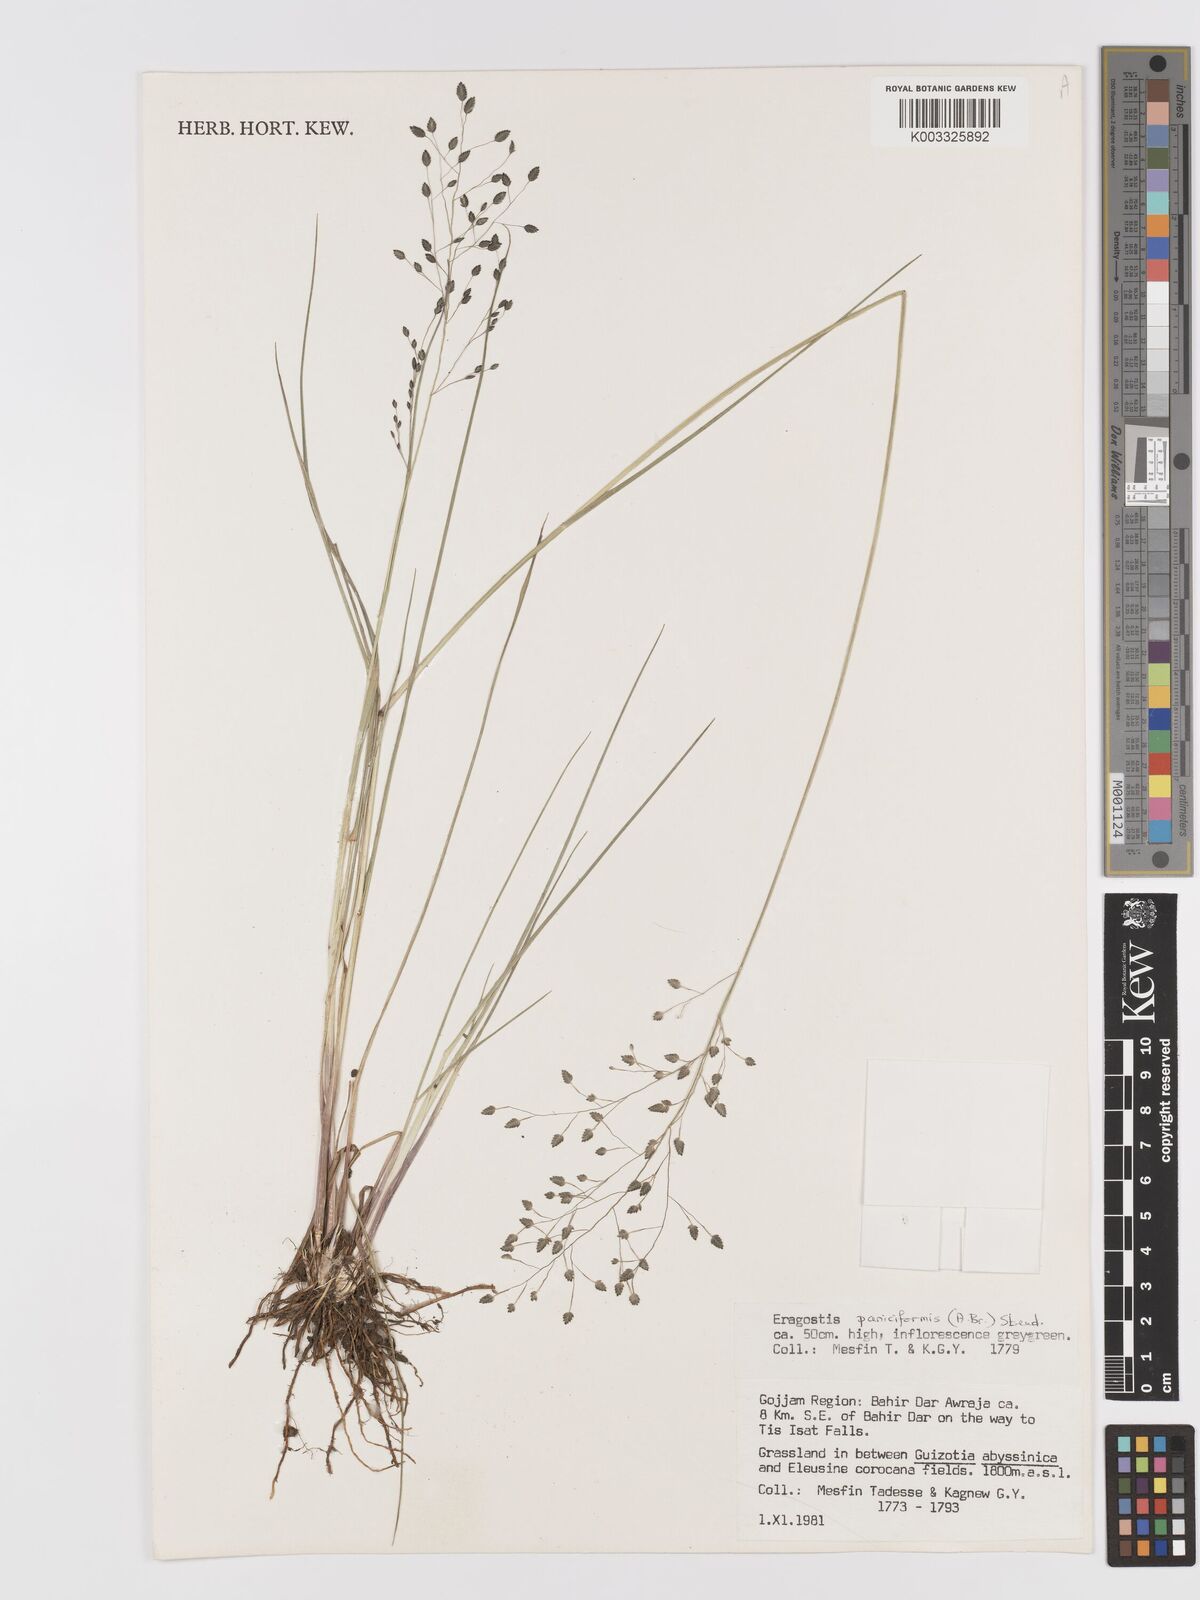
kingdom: Plantae
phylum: Tracheophyta
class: Liliopsida
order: Poales
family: Poaceae
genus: Eragrostis
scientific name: Eragrostis paniciformis
